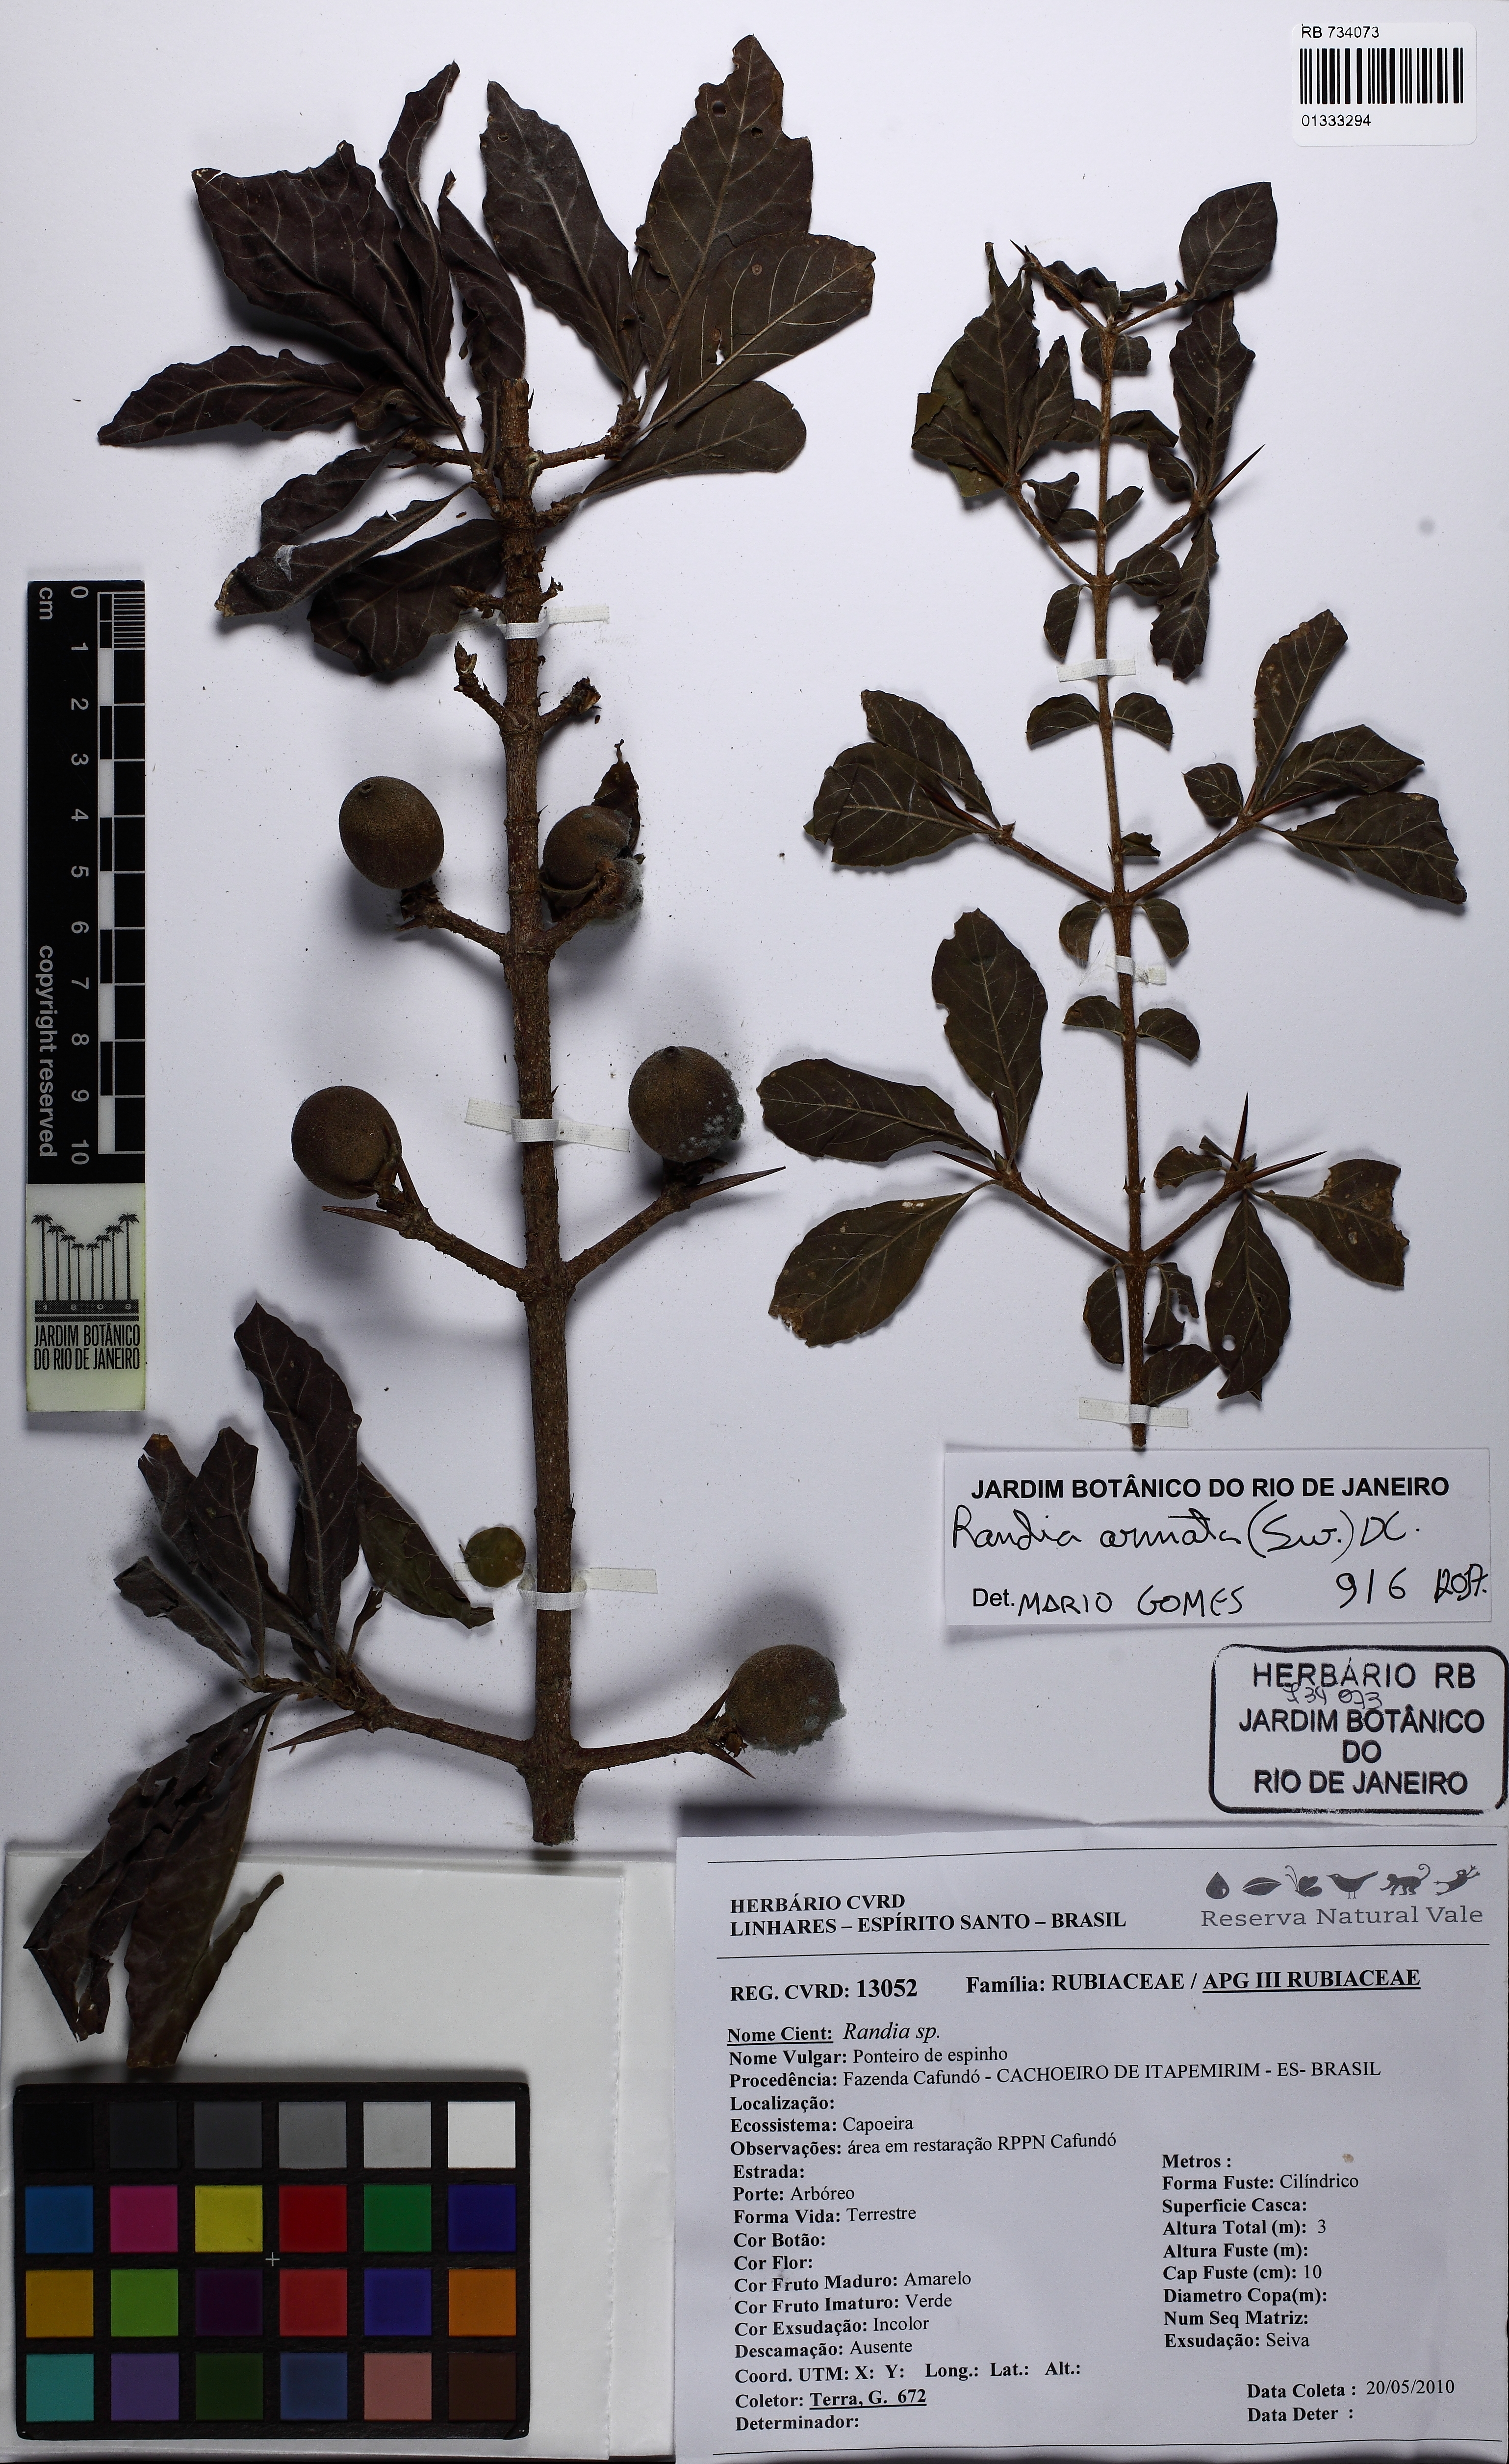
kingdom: Plantae
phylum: Tracheophyta
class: Magnoliopsida
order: Gentianales
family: Rubiaceae
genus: Randia
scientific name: Randia calycina
